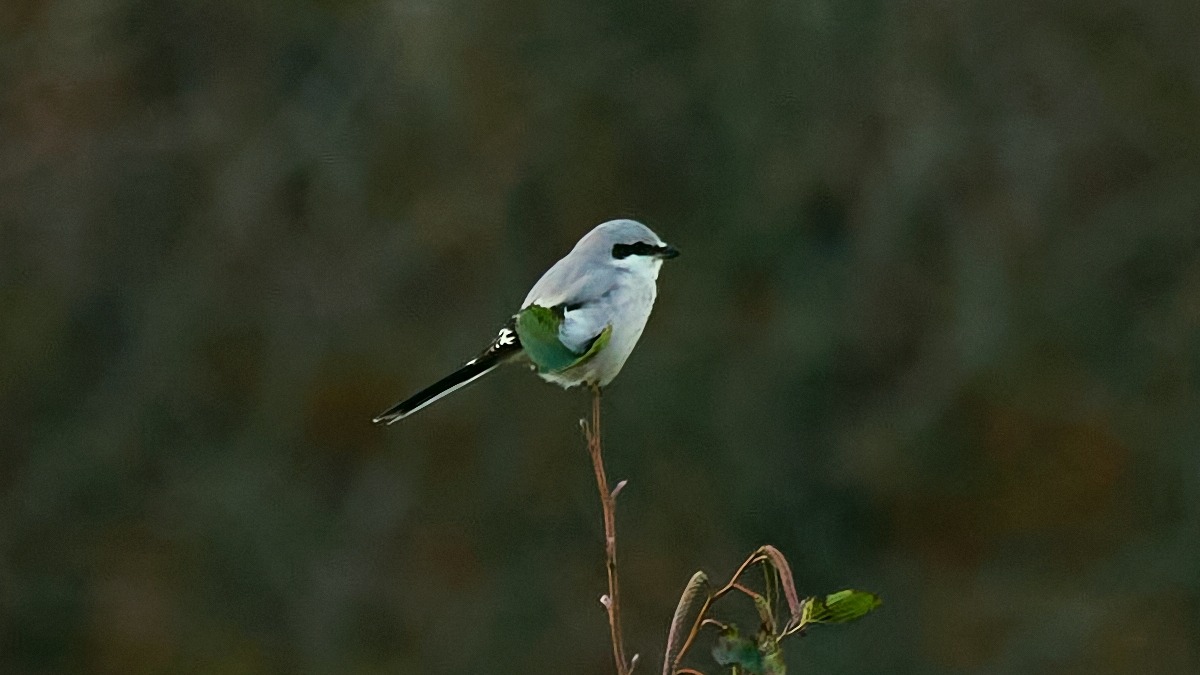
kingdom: Animalia
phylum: Chordata
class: Aves
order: Passeriformes
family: Laniidae
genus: Lanius
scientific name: Lanius excubitor
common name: Stor tornskade
